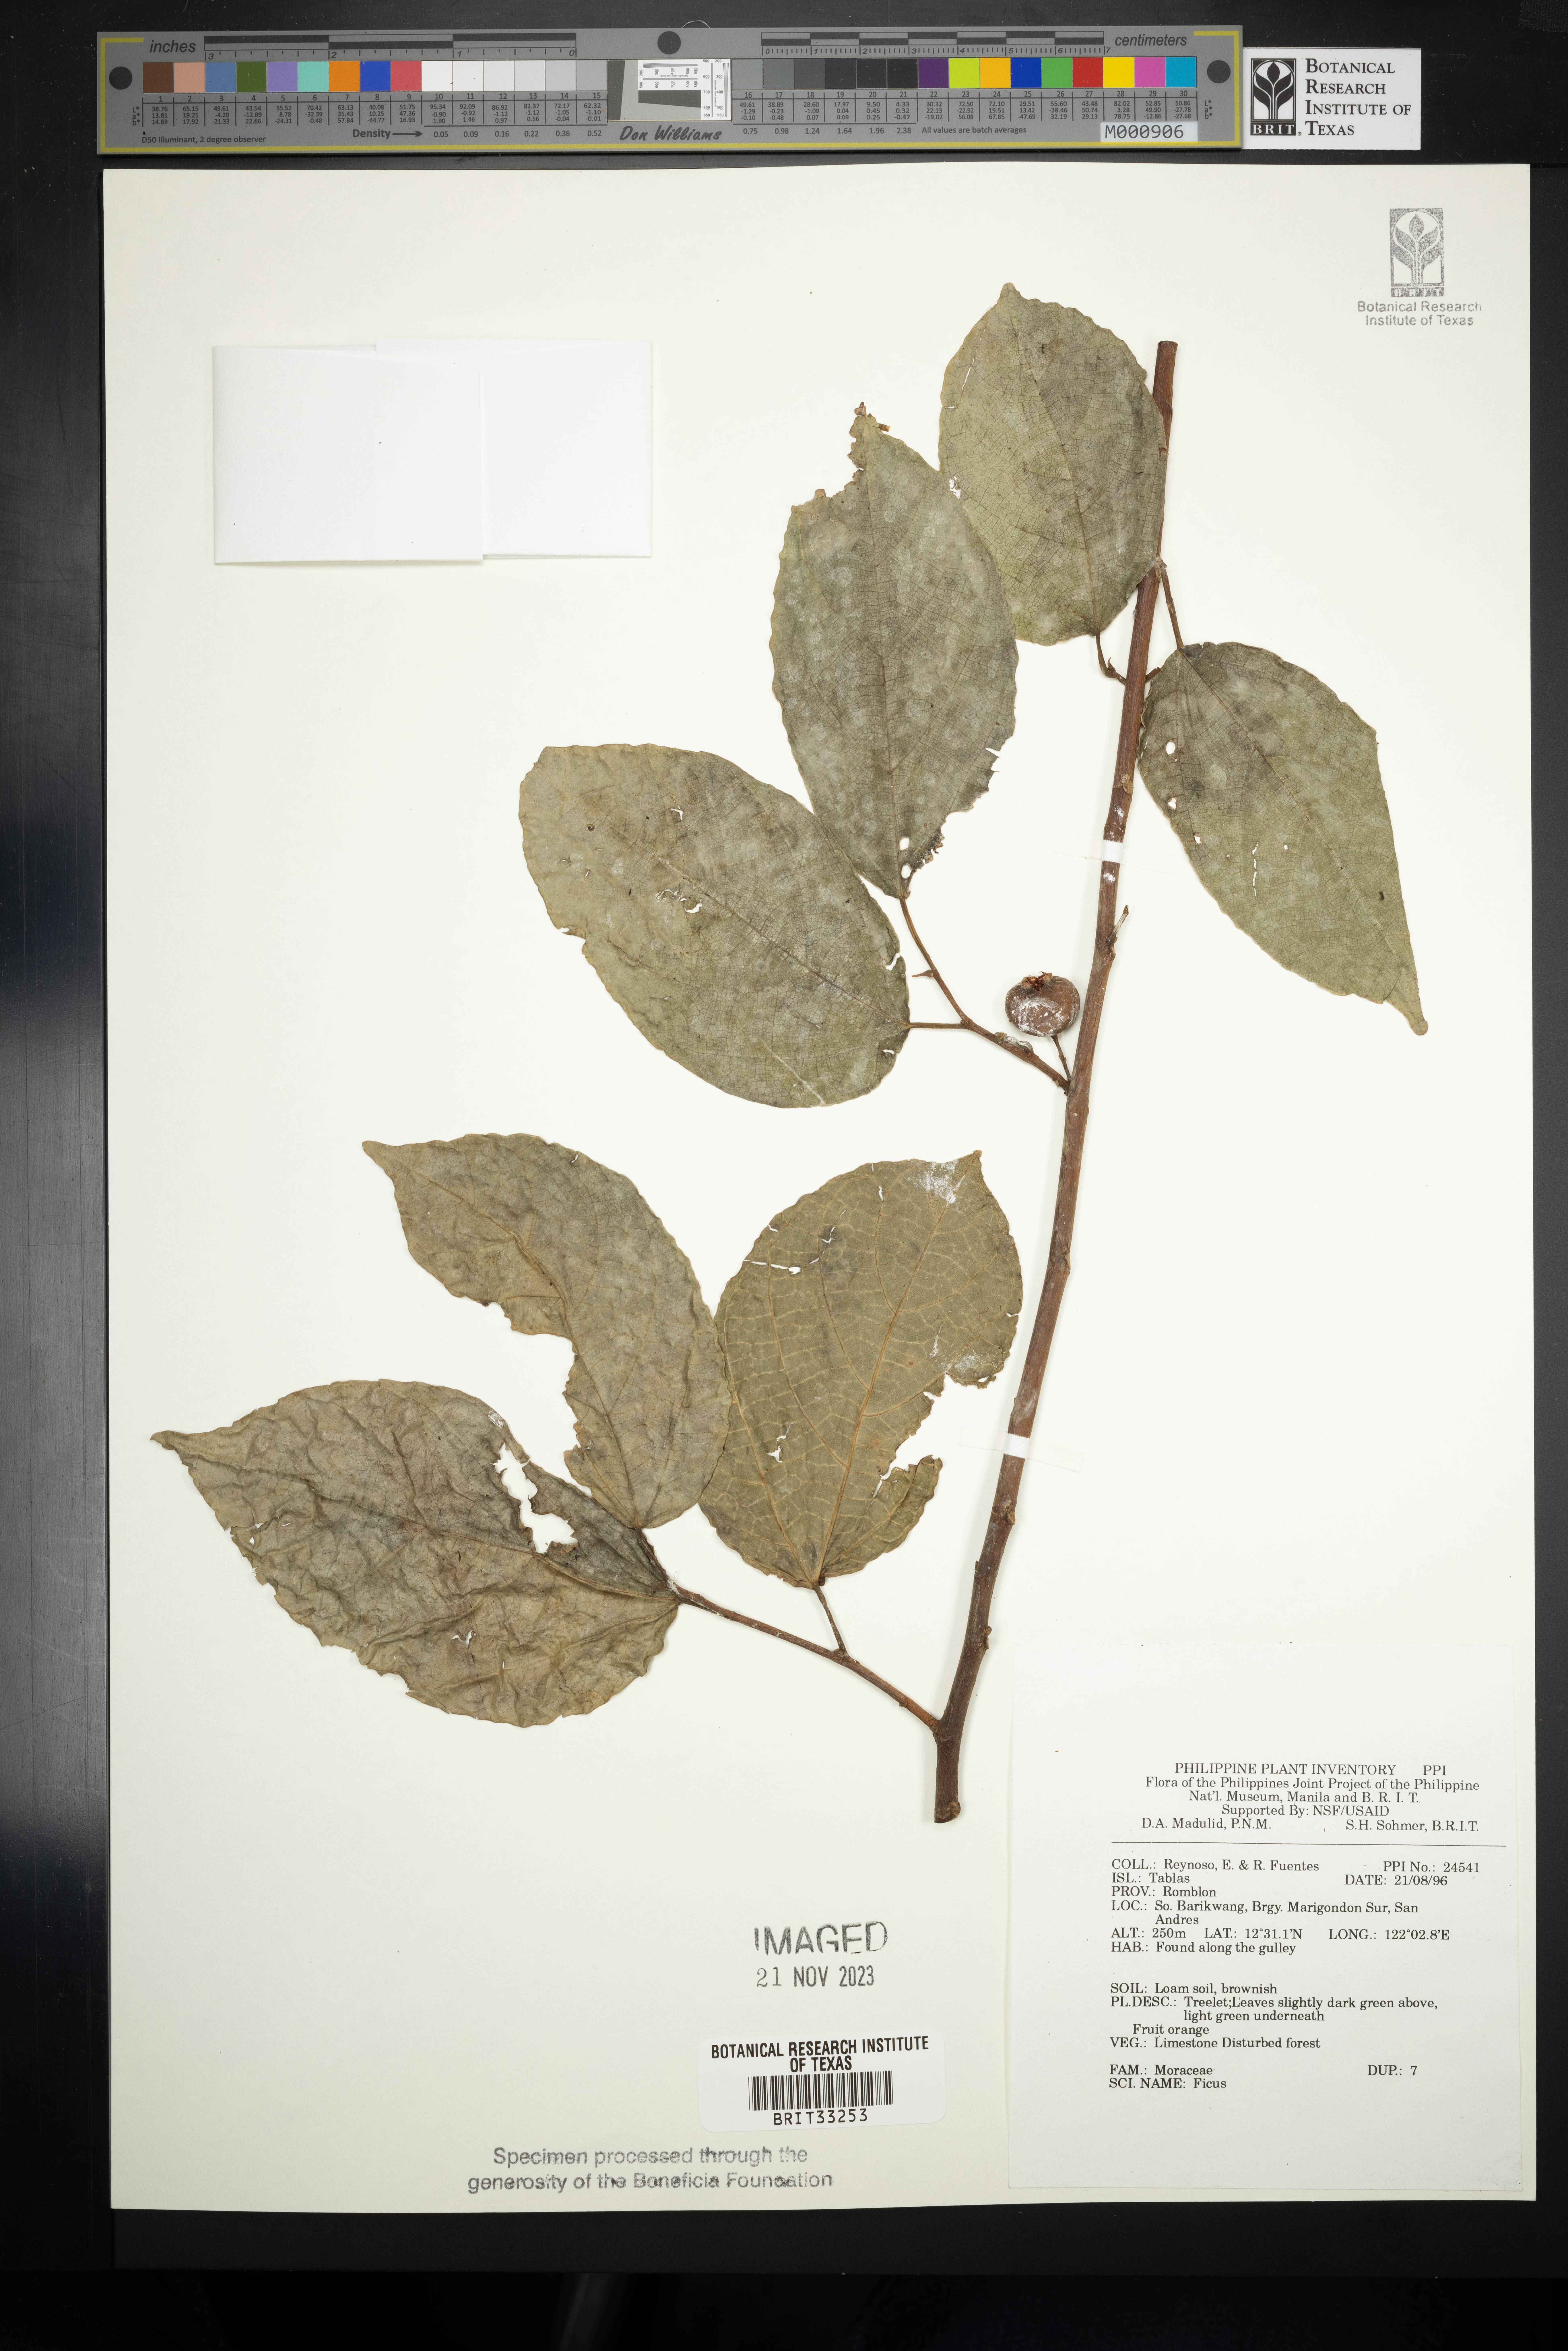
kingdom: Plantae
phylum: Tracheophyta
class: Magnoliopsida
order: Rosales
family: Moraceae
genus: Ficus
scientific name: Ficus
